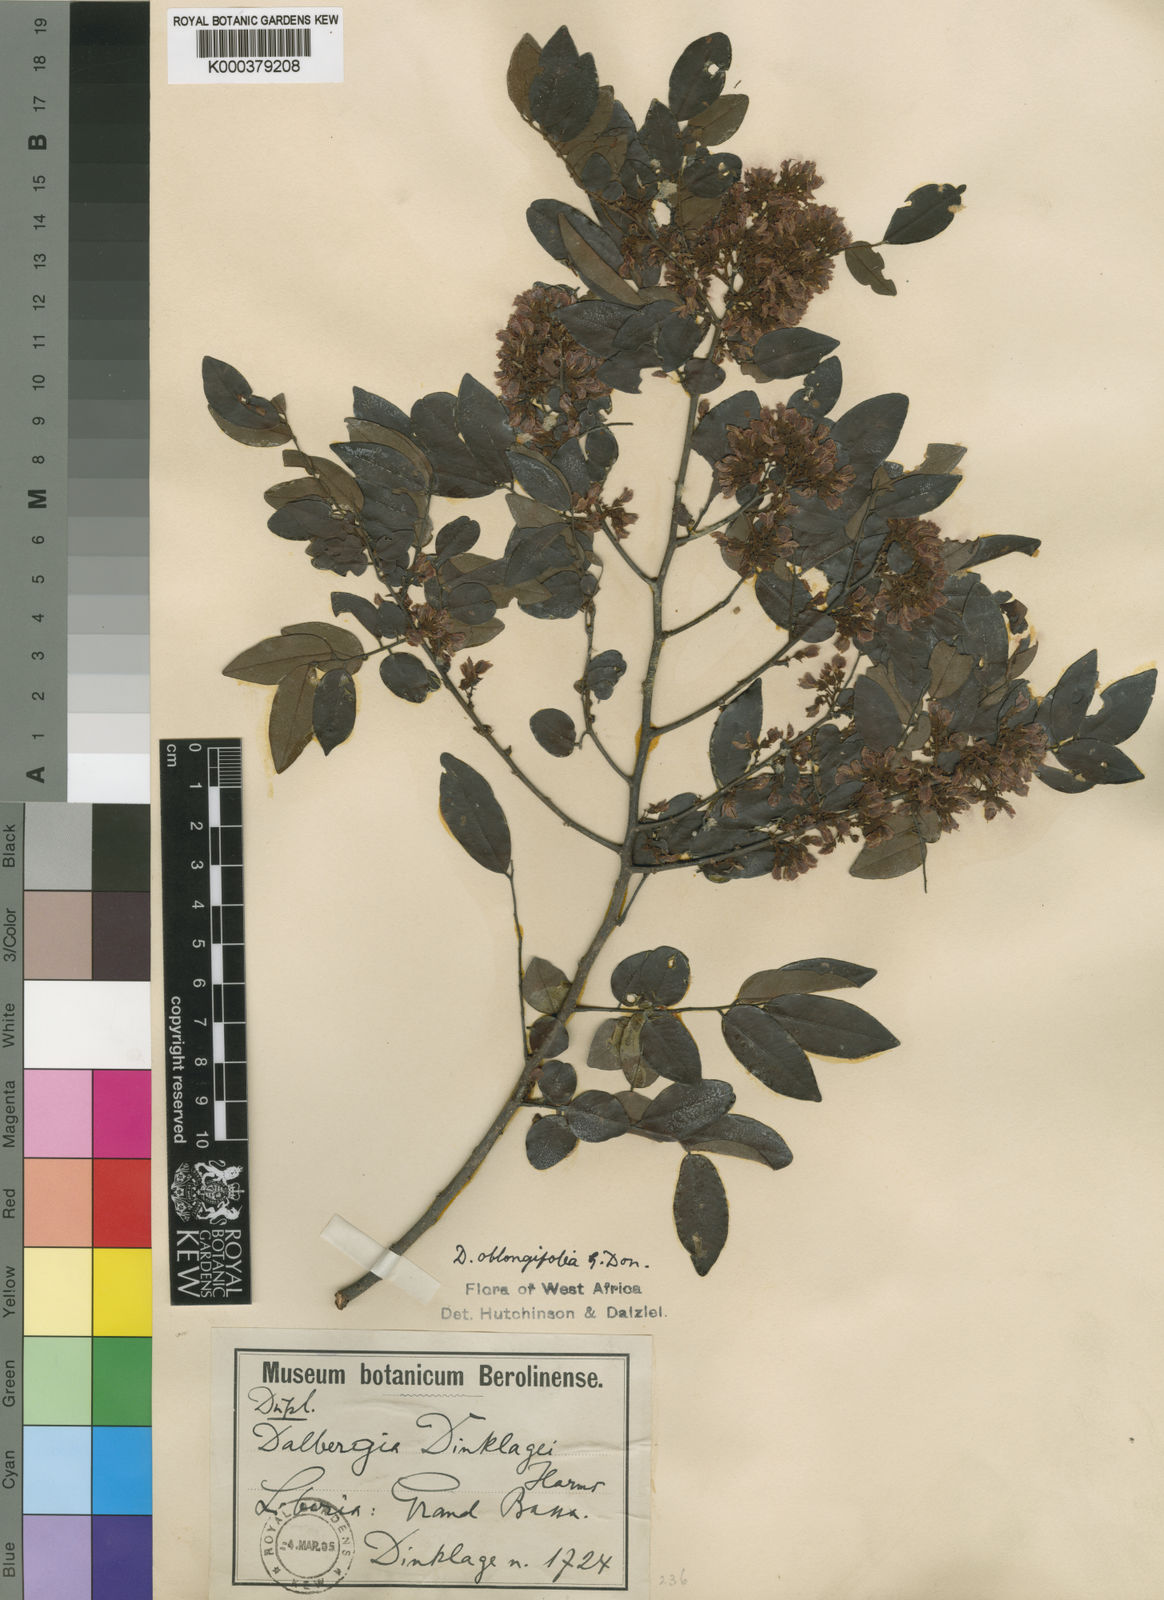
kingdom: Plantae
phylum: Tracheophyta
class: Magnoliopsida
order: Fabales
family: Fabaceae
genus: Dalbergia
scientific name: Dalbergia oblongifolia
